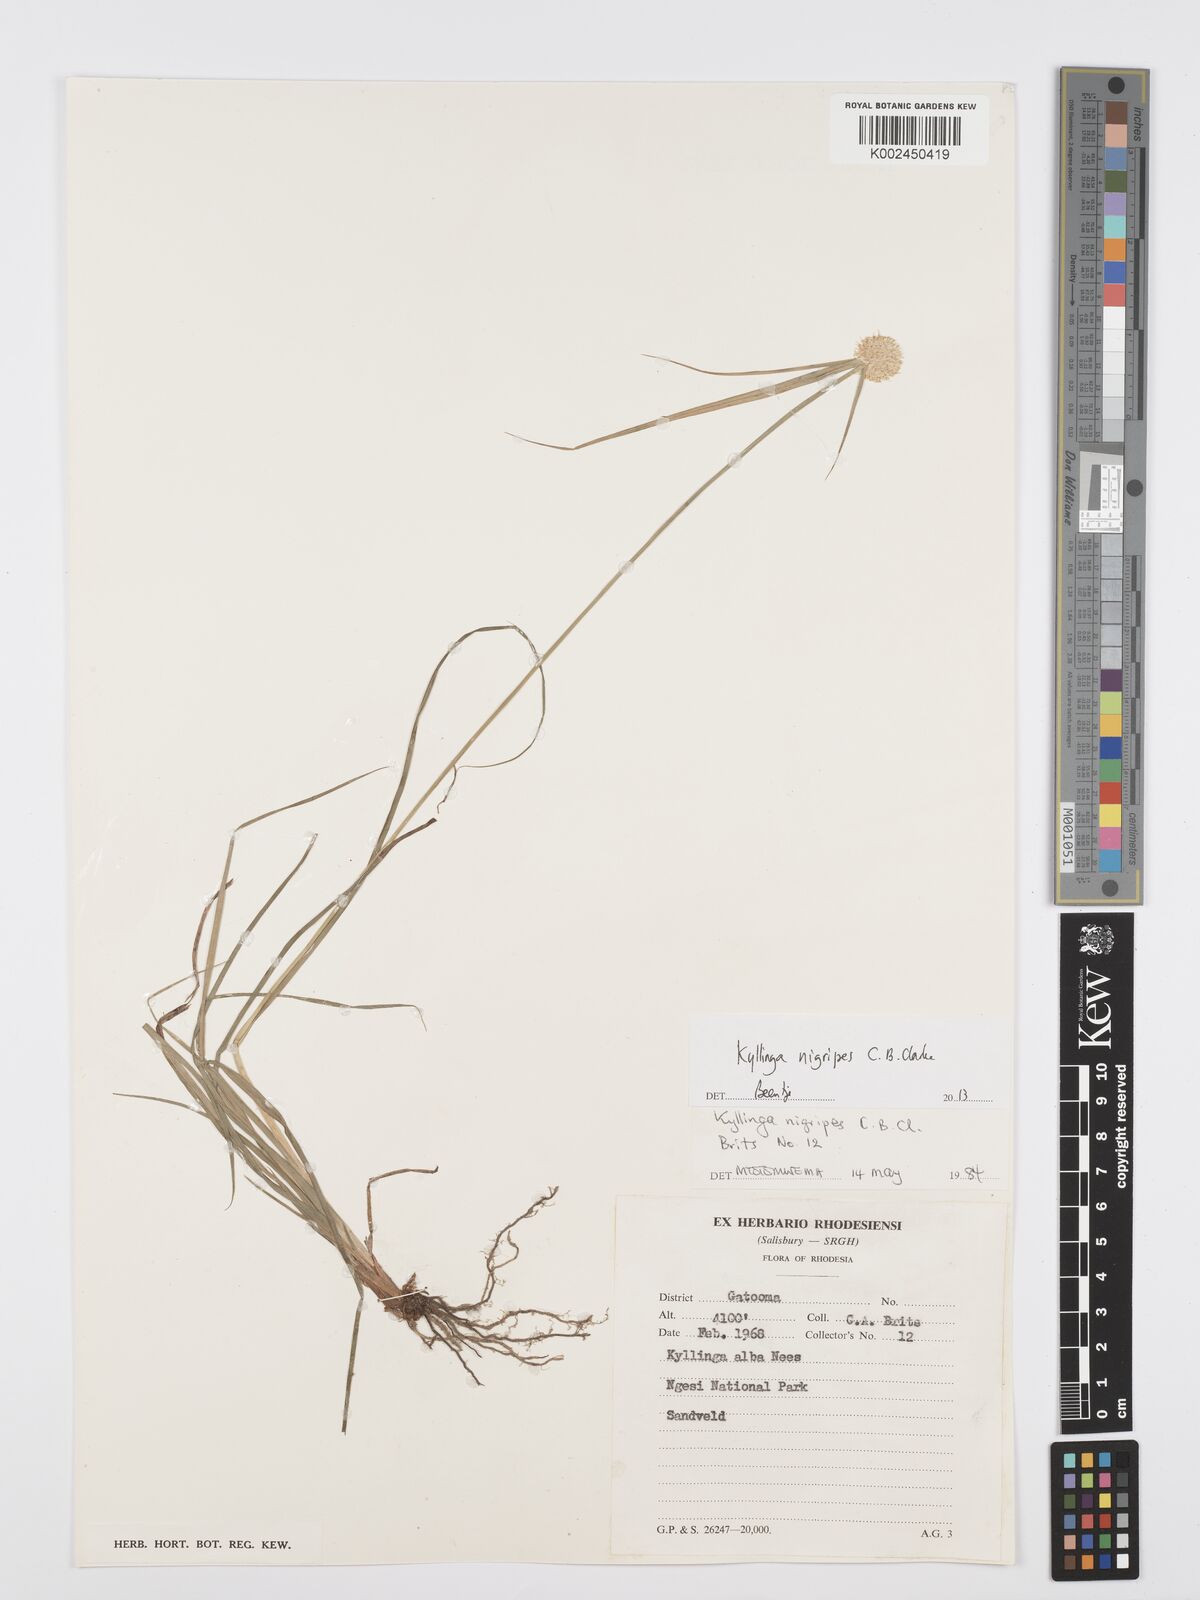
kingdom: Plantae
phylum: Tracheophyta
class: Liliopsida
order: Poales
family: Cyperaceae
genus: Cyperus
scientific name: Cyperus nigripes
